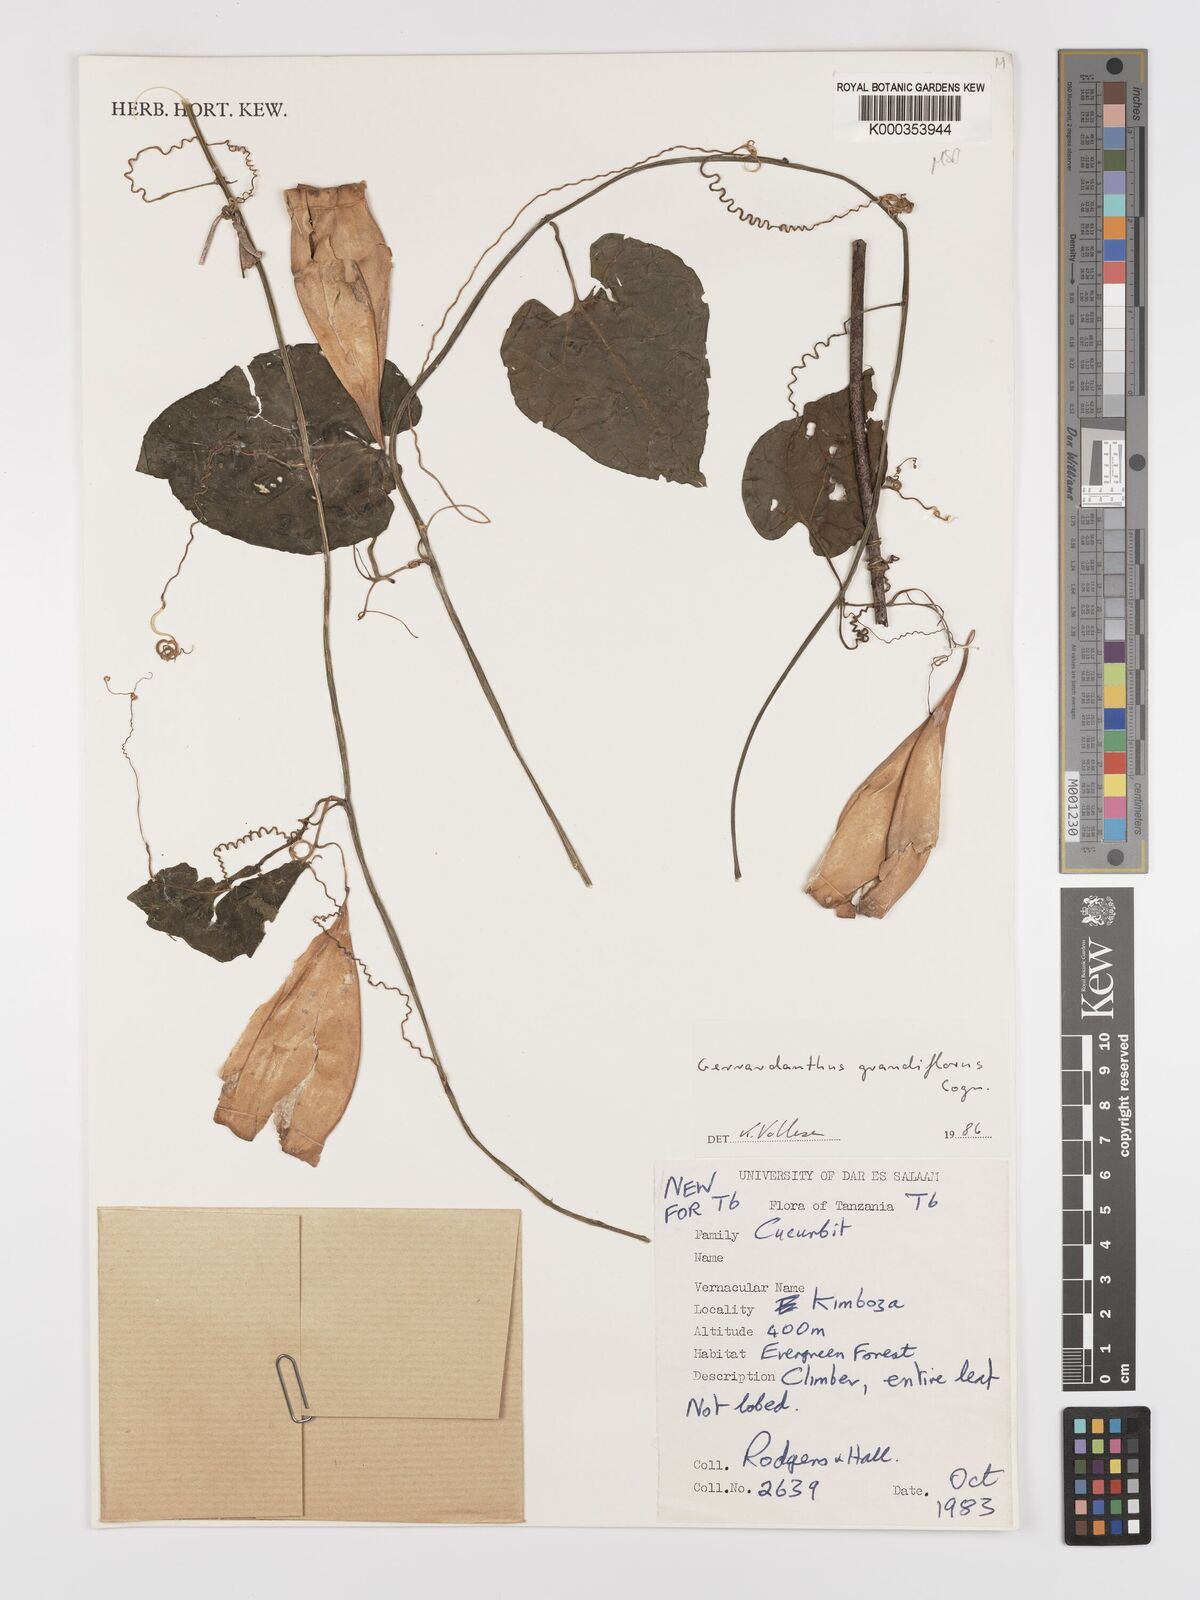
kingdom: Plantae
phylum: Tracheophyta
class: Magnoliopsida
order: Cucurbitales
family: Cucurbitaceae
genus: Gerrardanthus
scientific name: Gerrardanthus
